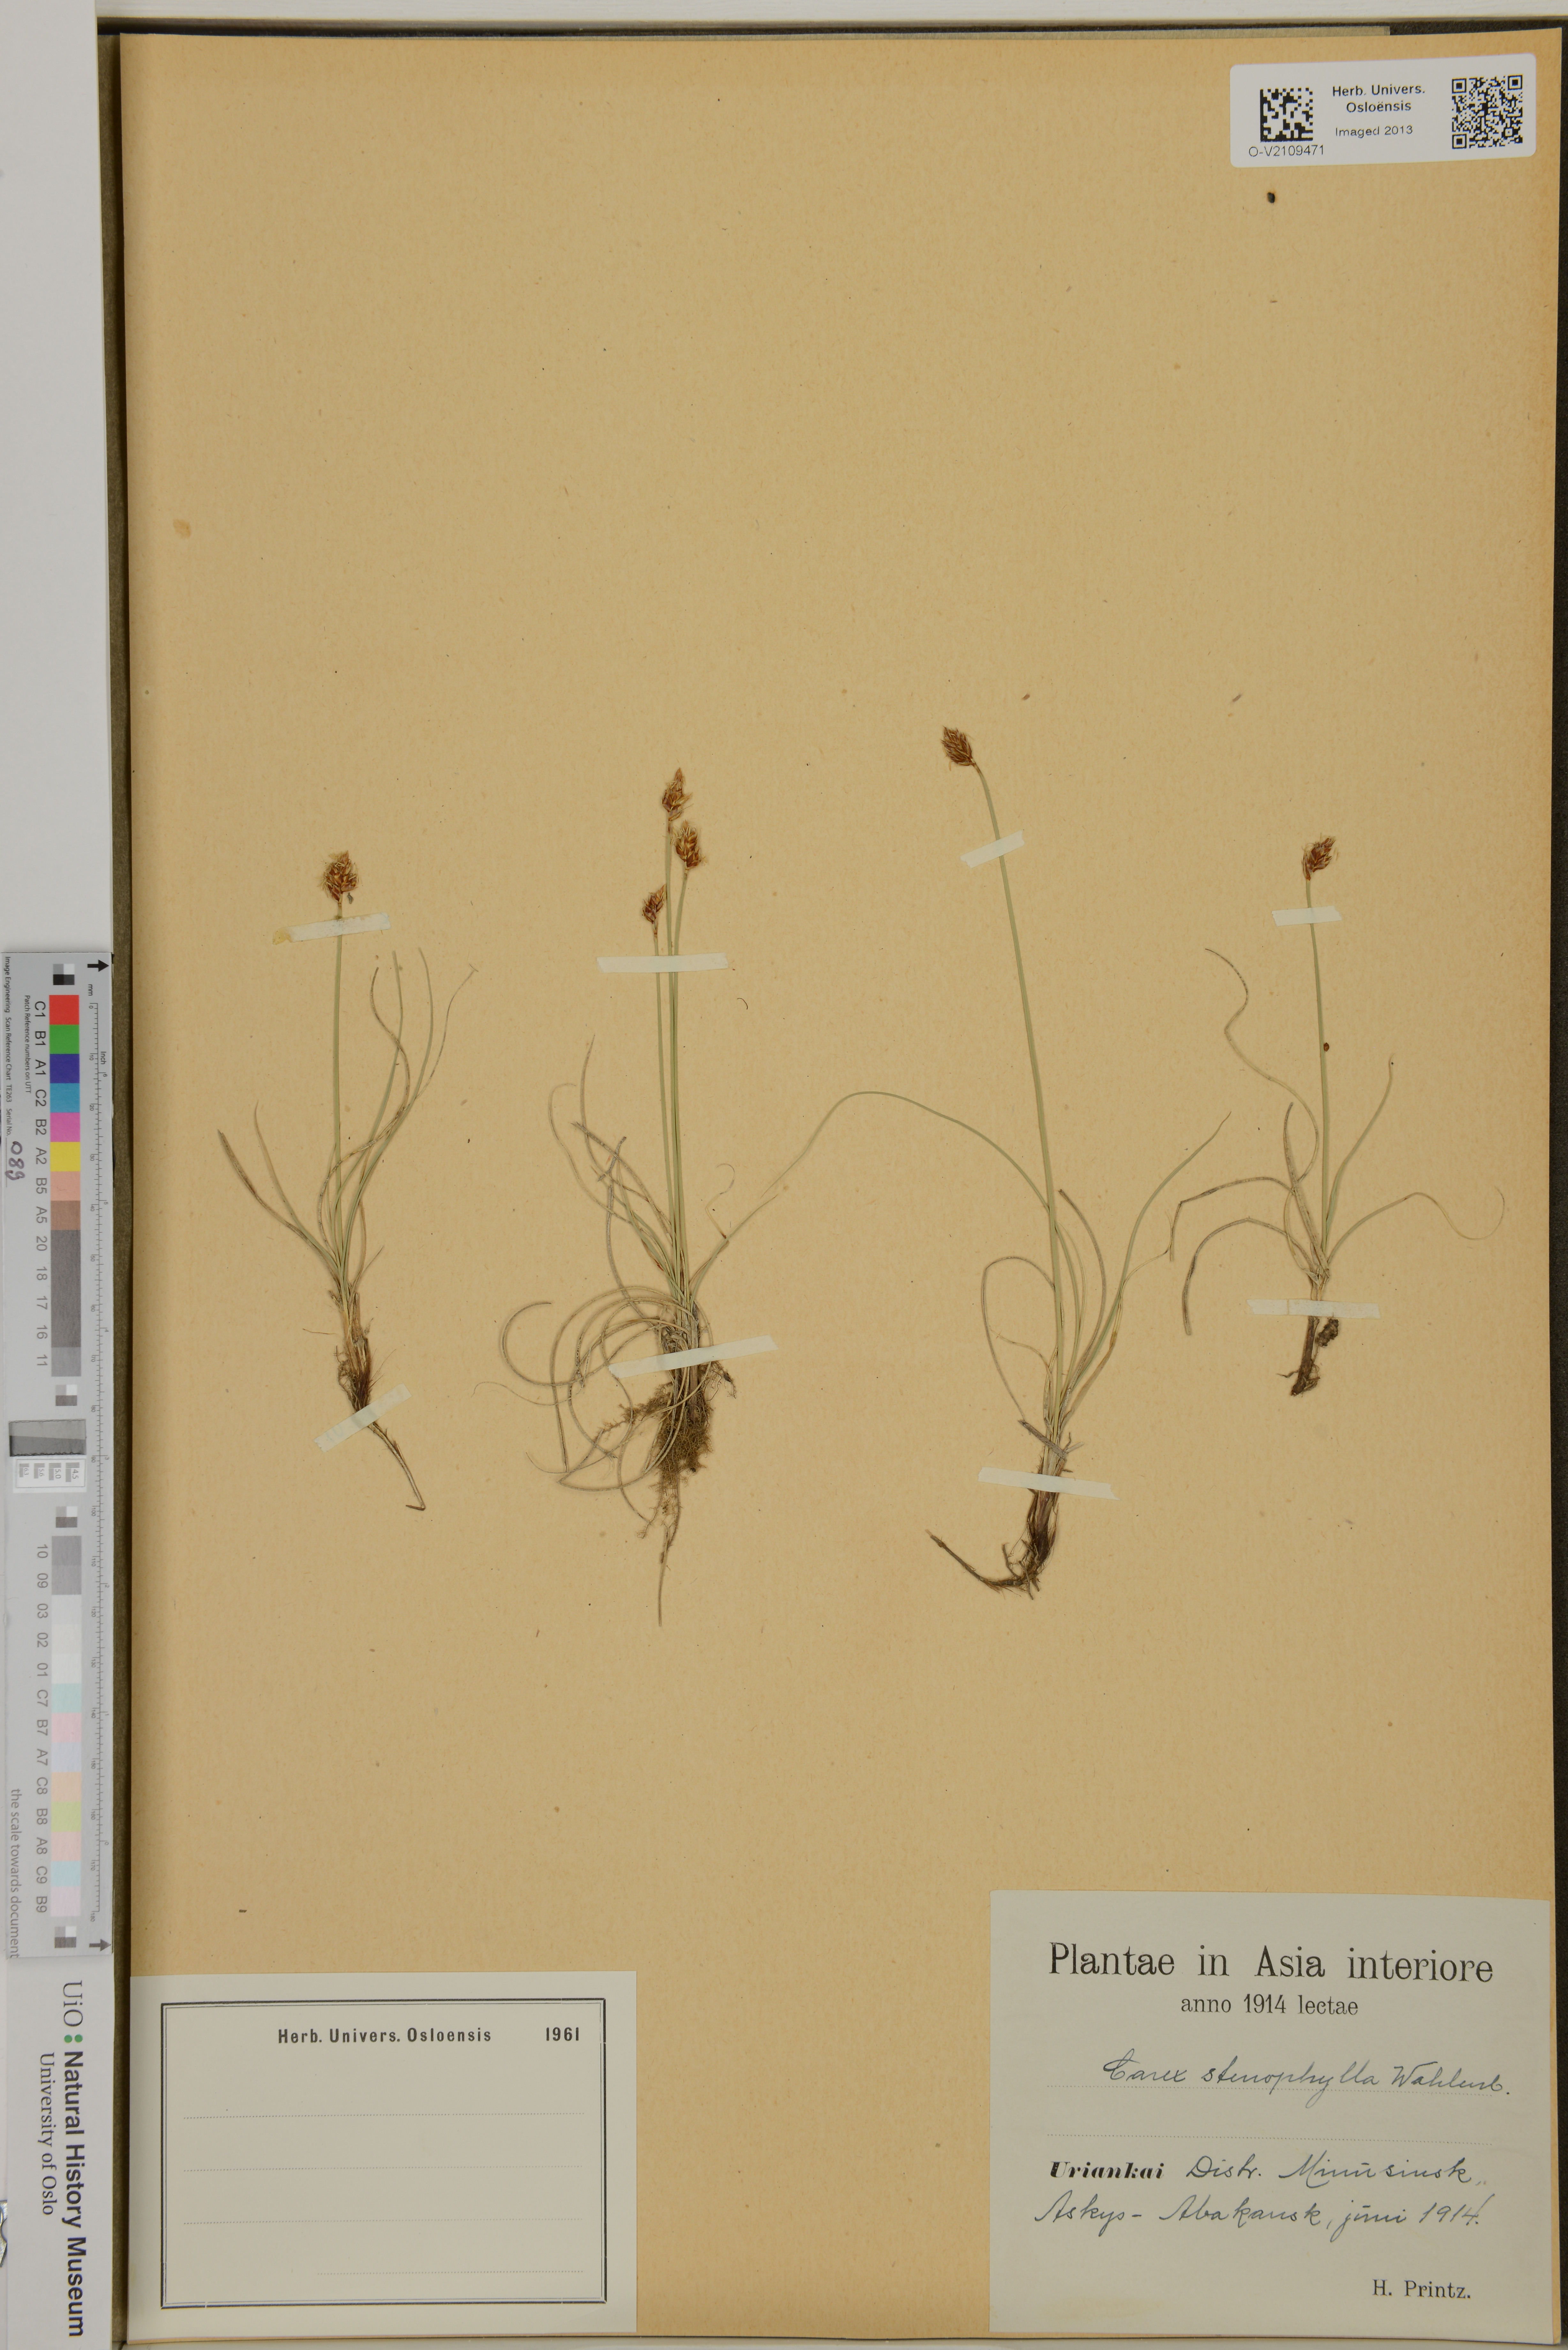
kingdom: Plantae
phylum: Tracheophyta
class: Liliopsida
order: Poales
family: Cyperaceae
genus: Carex
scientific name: Carex stenophylla
